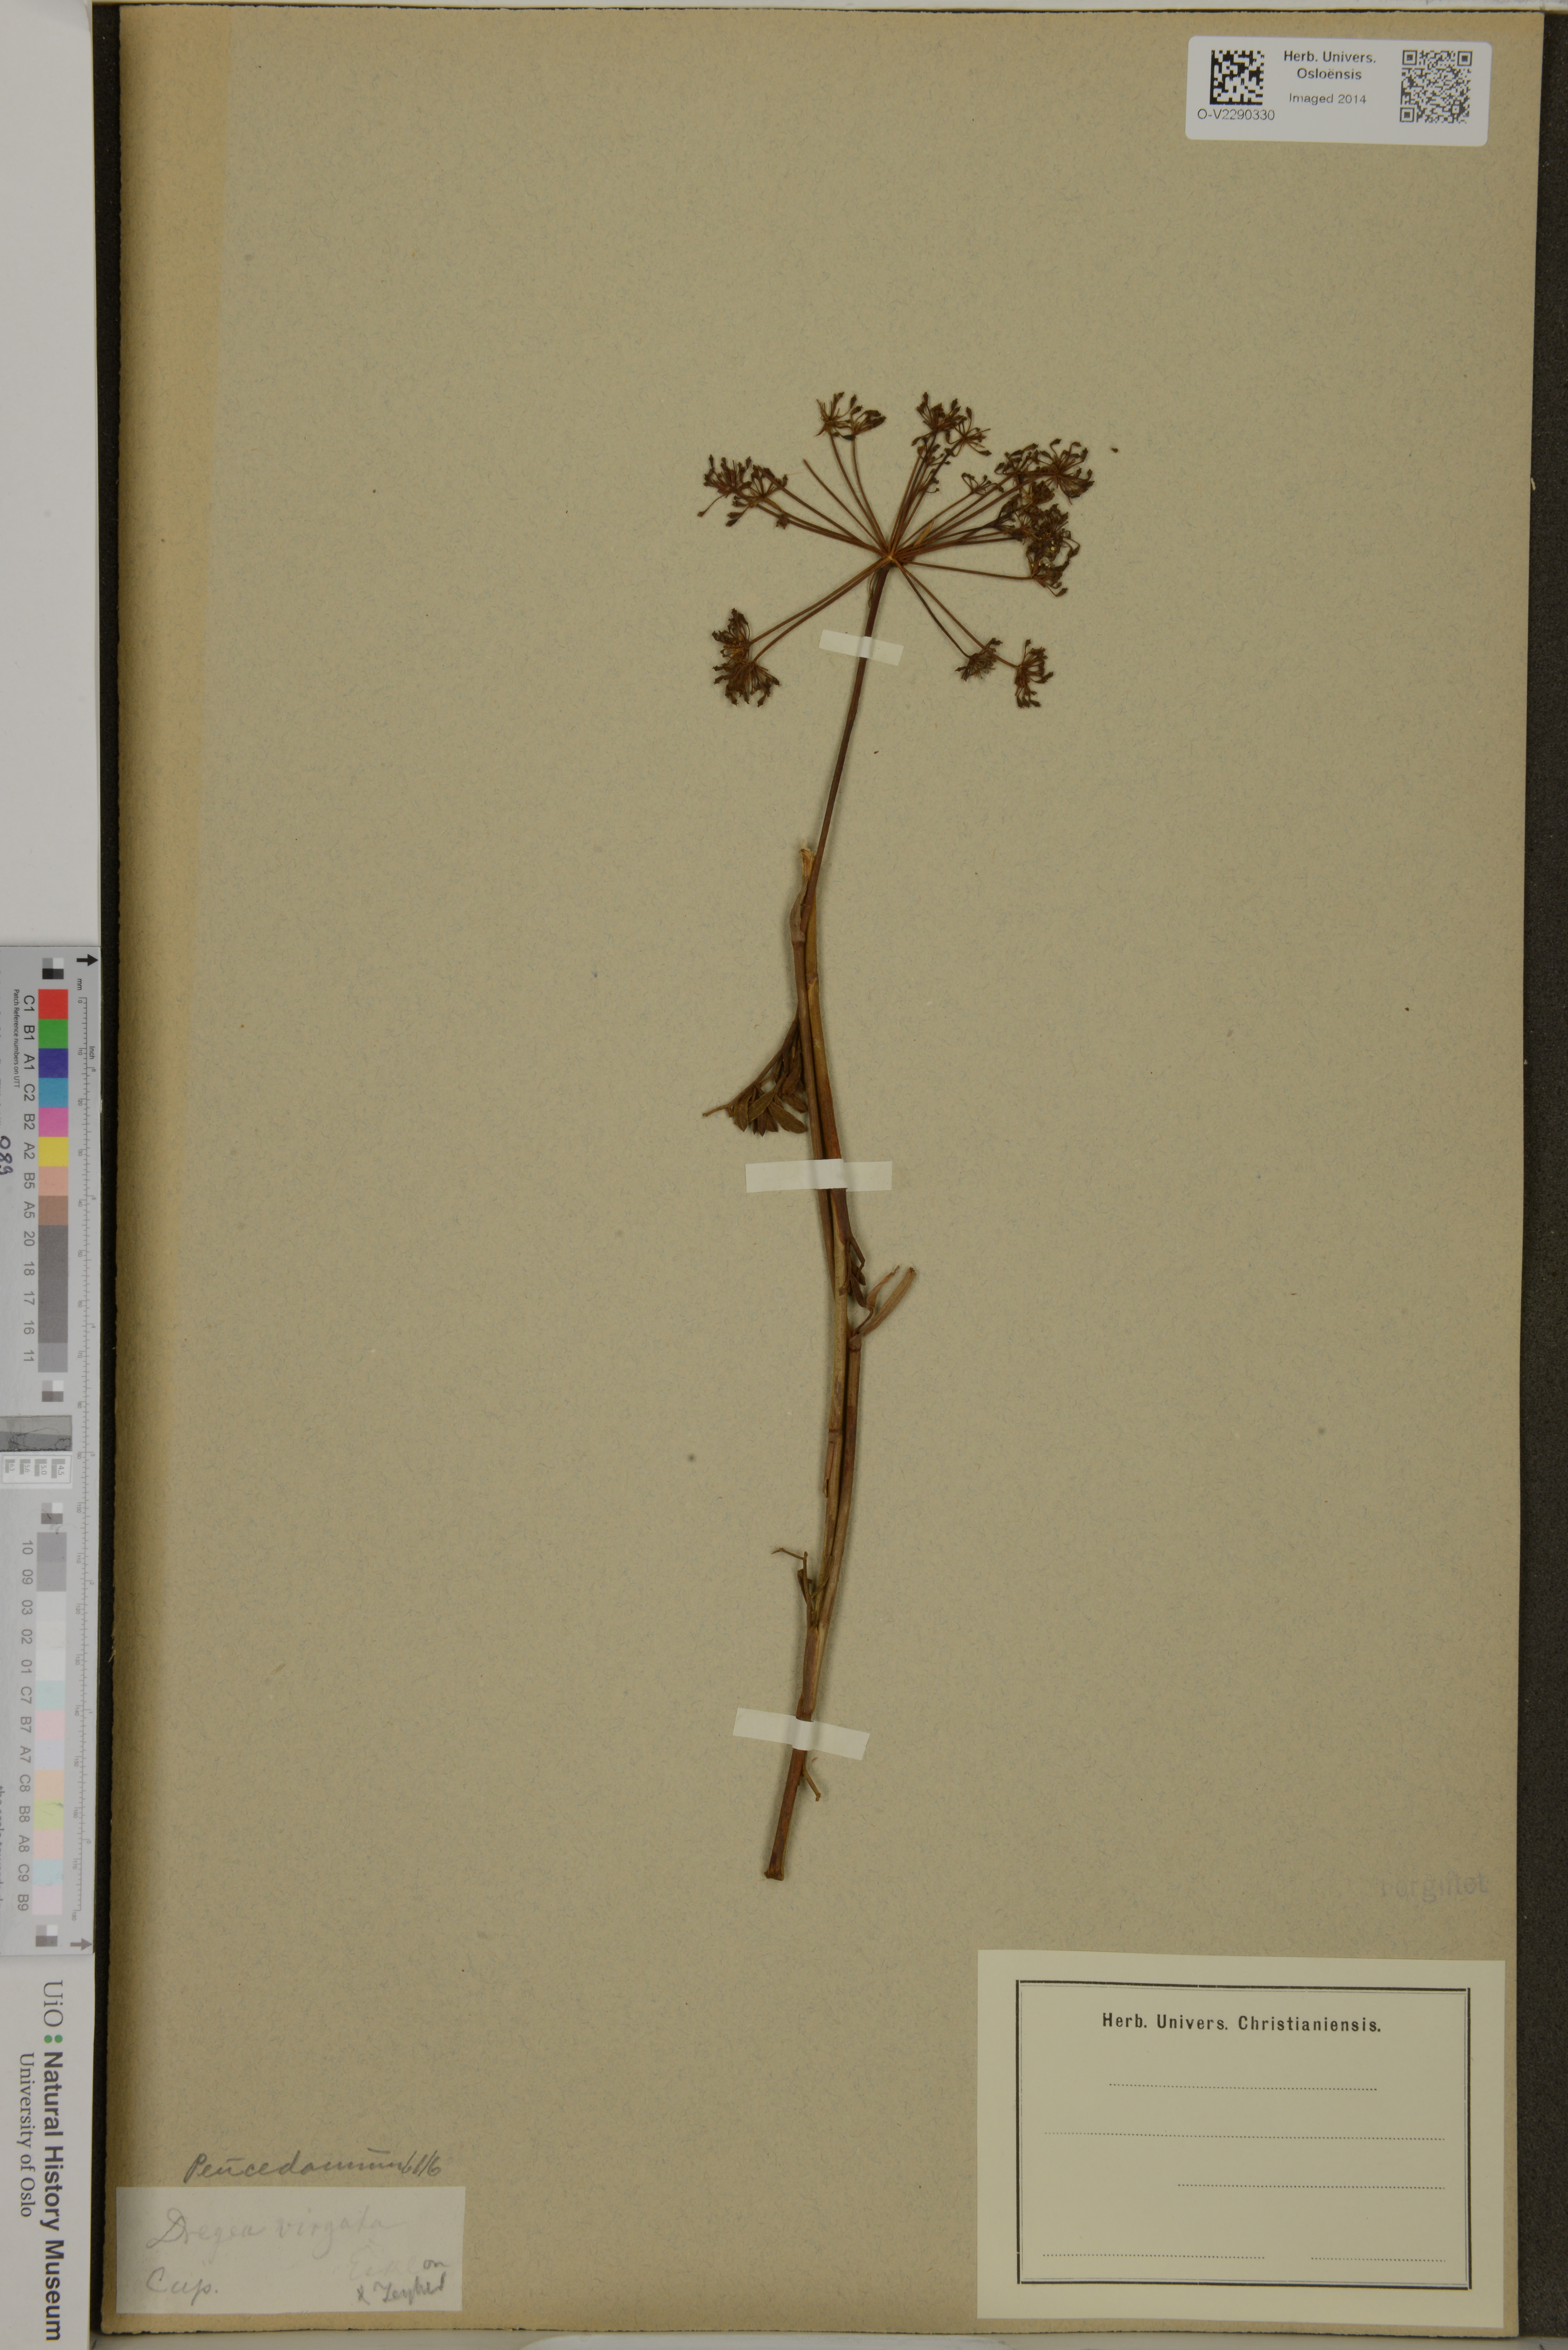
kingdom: Plantae
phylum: Tracheophyta
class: Magnoliopsida
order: Apiales
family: Apiaceae
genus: Notobubon
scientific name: Notobubon laevigatum
